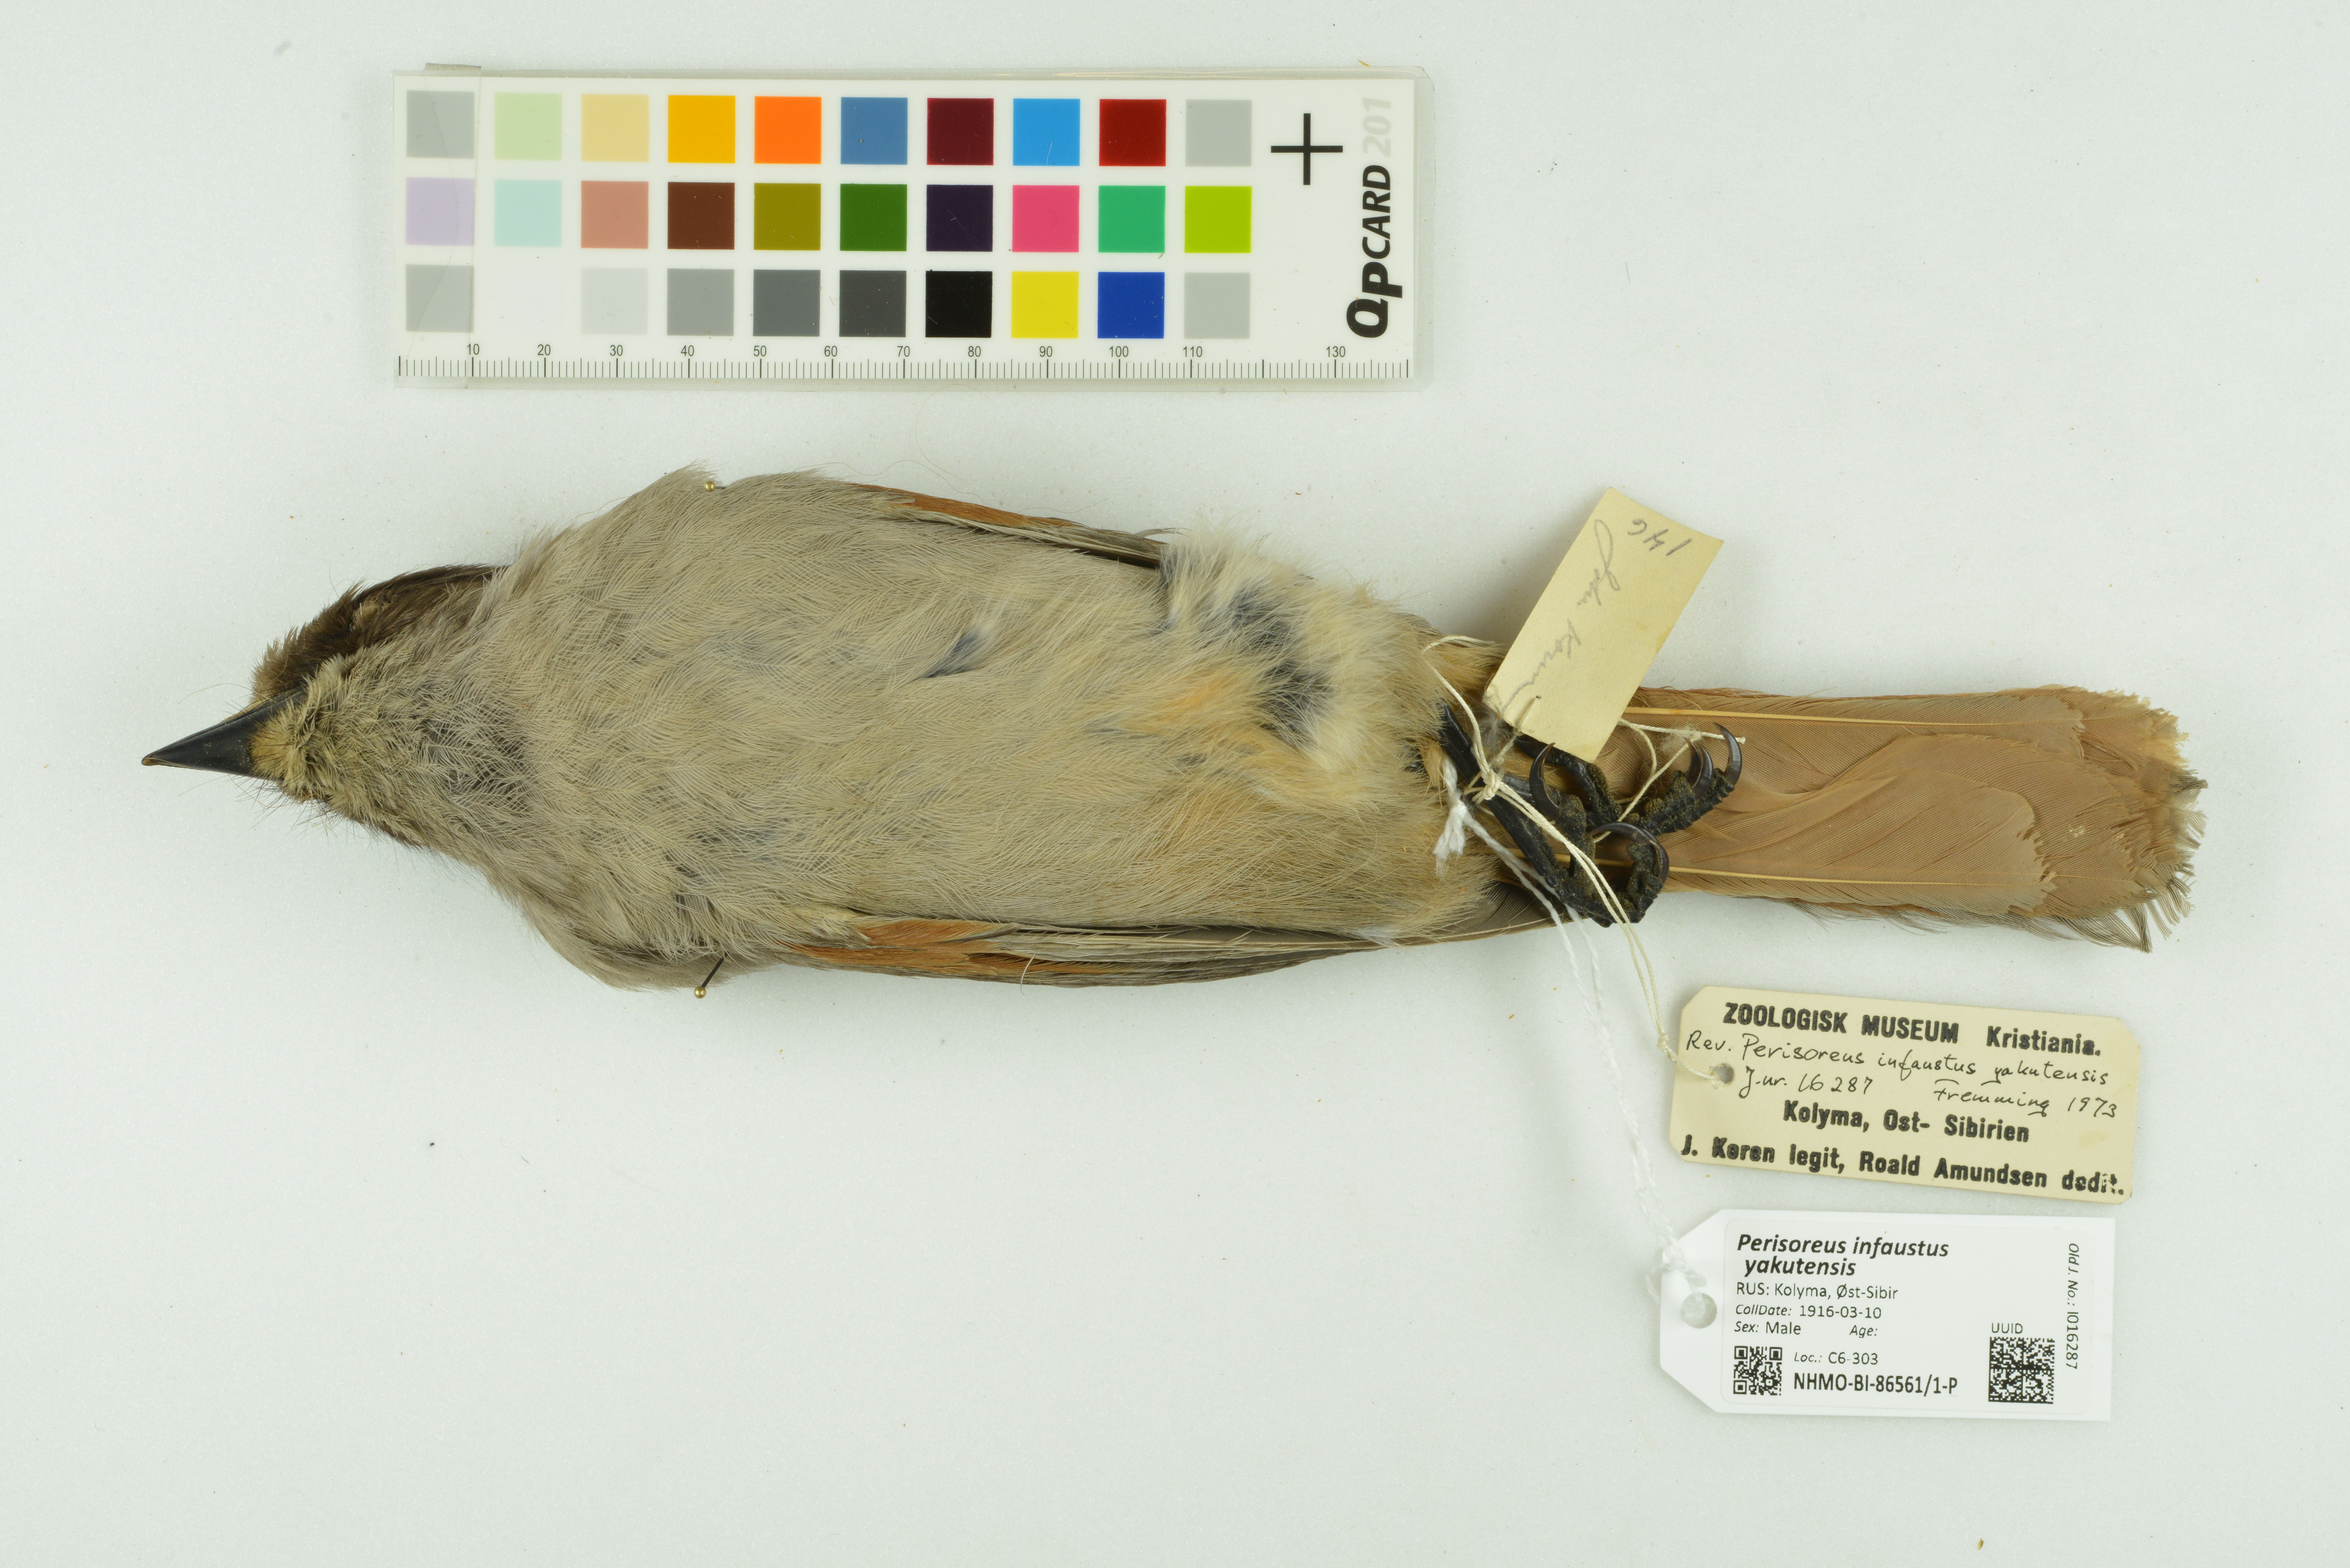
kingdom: Animalia
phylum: Chordata
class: Aves
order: Passeriformes
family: Corvidae
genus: Perisoreus
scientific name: Perisoreus infaustus
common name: Siberian jay
